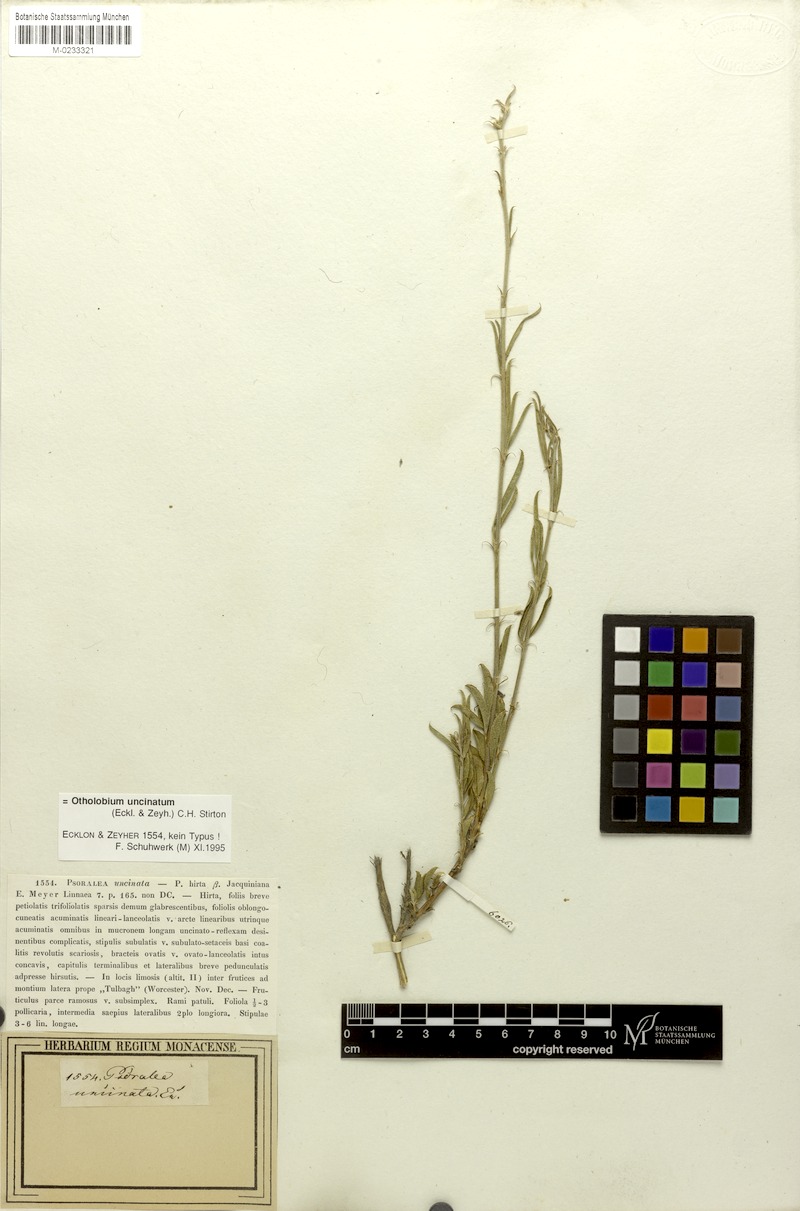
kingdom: Plantae
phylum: Tracheophyta
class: Magnoliopsida
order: Fabales
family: Fabaceae
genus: Psoralea
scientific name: Psoralea uncinata
